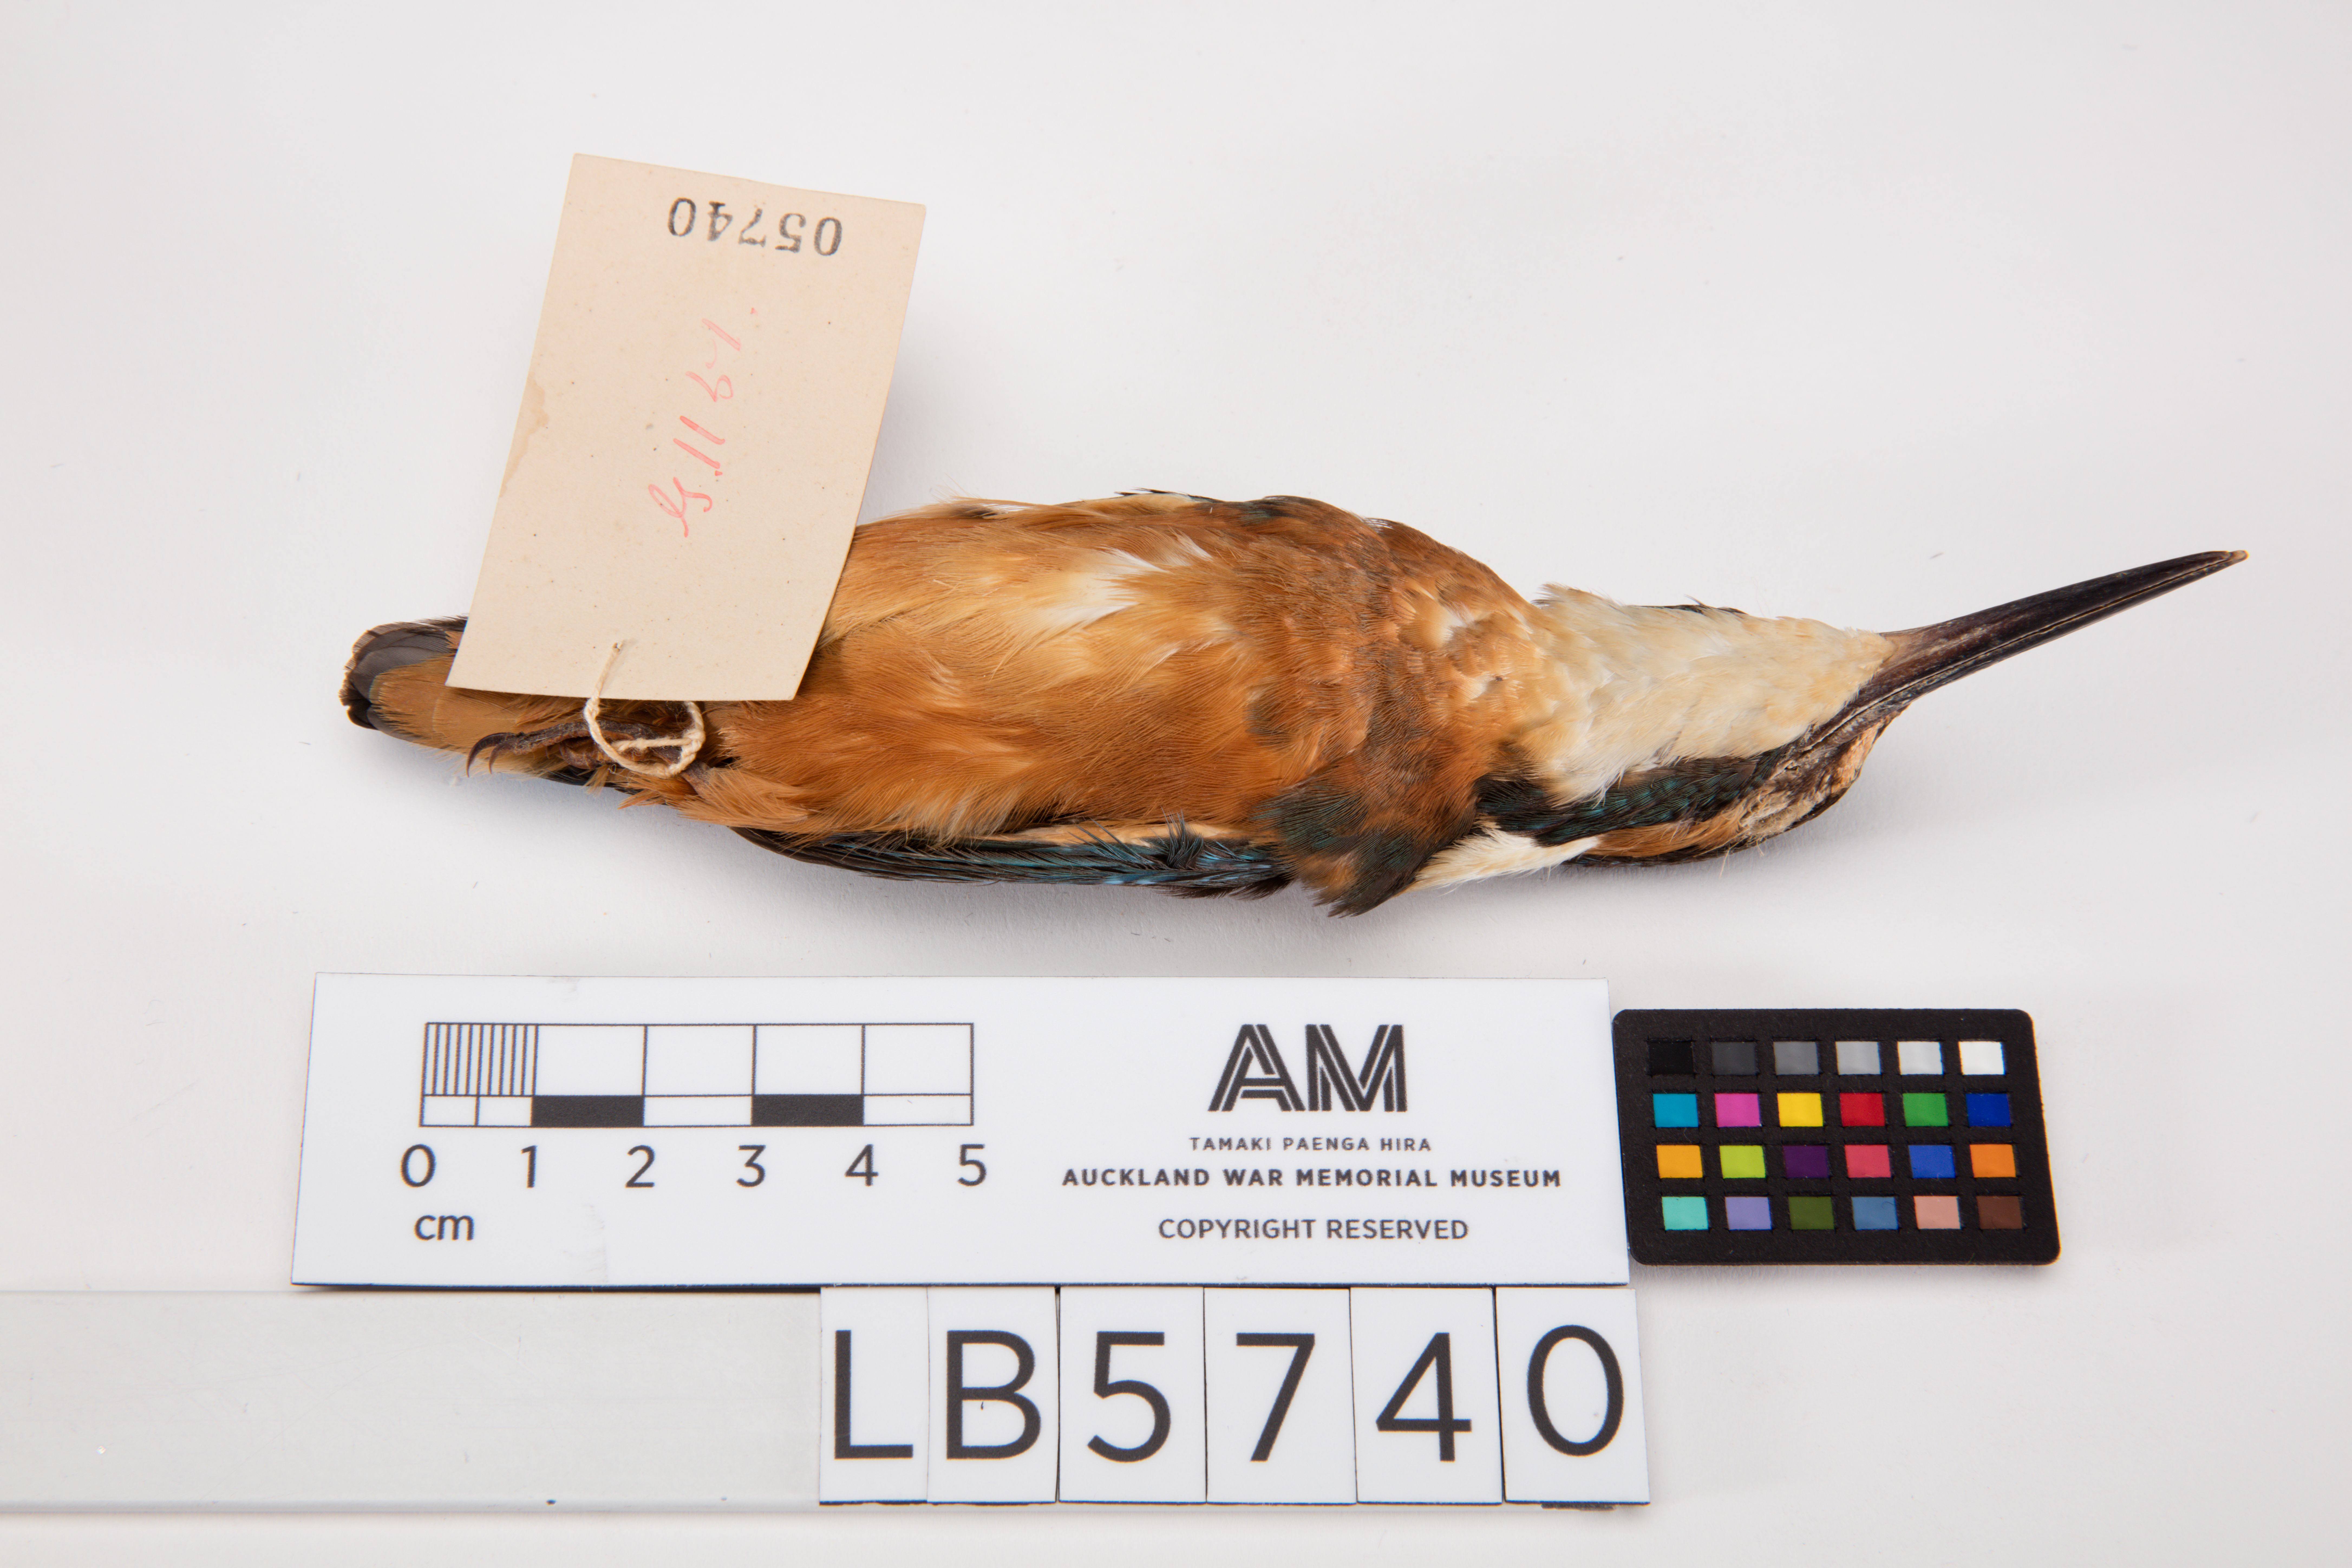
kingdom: Animalia
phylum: Chordata
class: Aves
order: Coraciiformes
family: Alcedinidae
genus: Alcedo
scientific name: Alcedo atthis
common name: Common kingfisher
